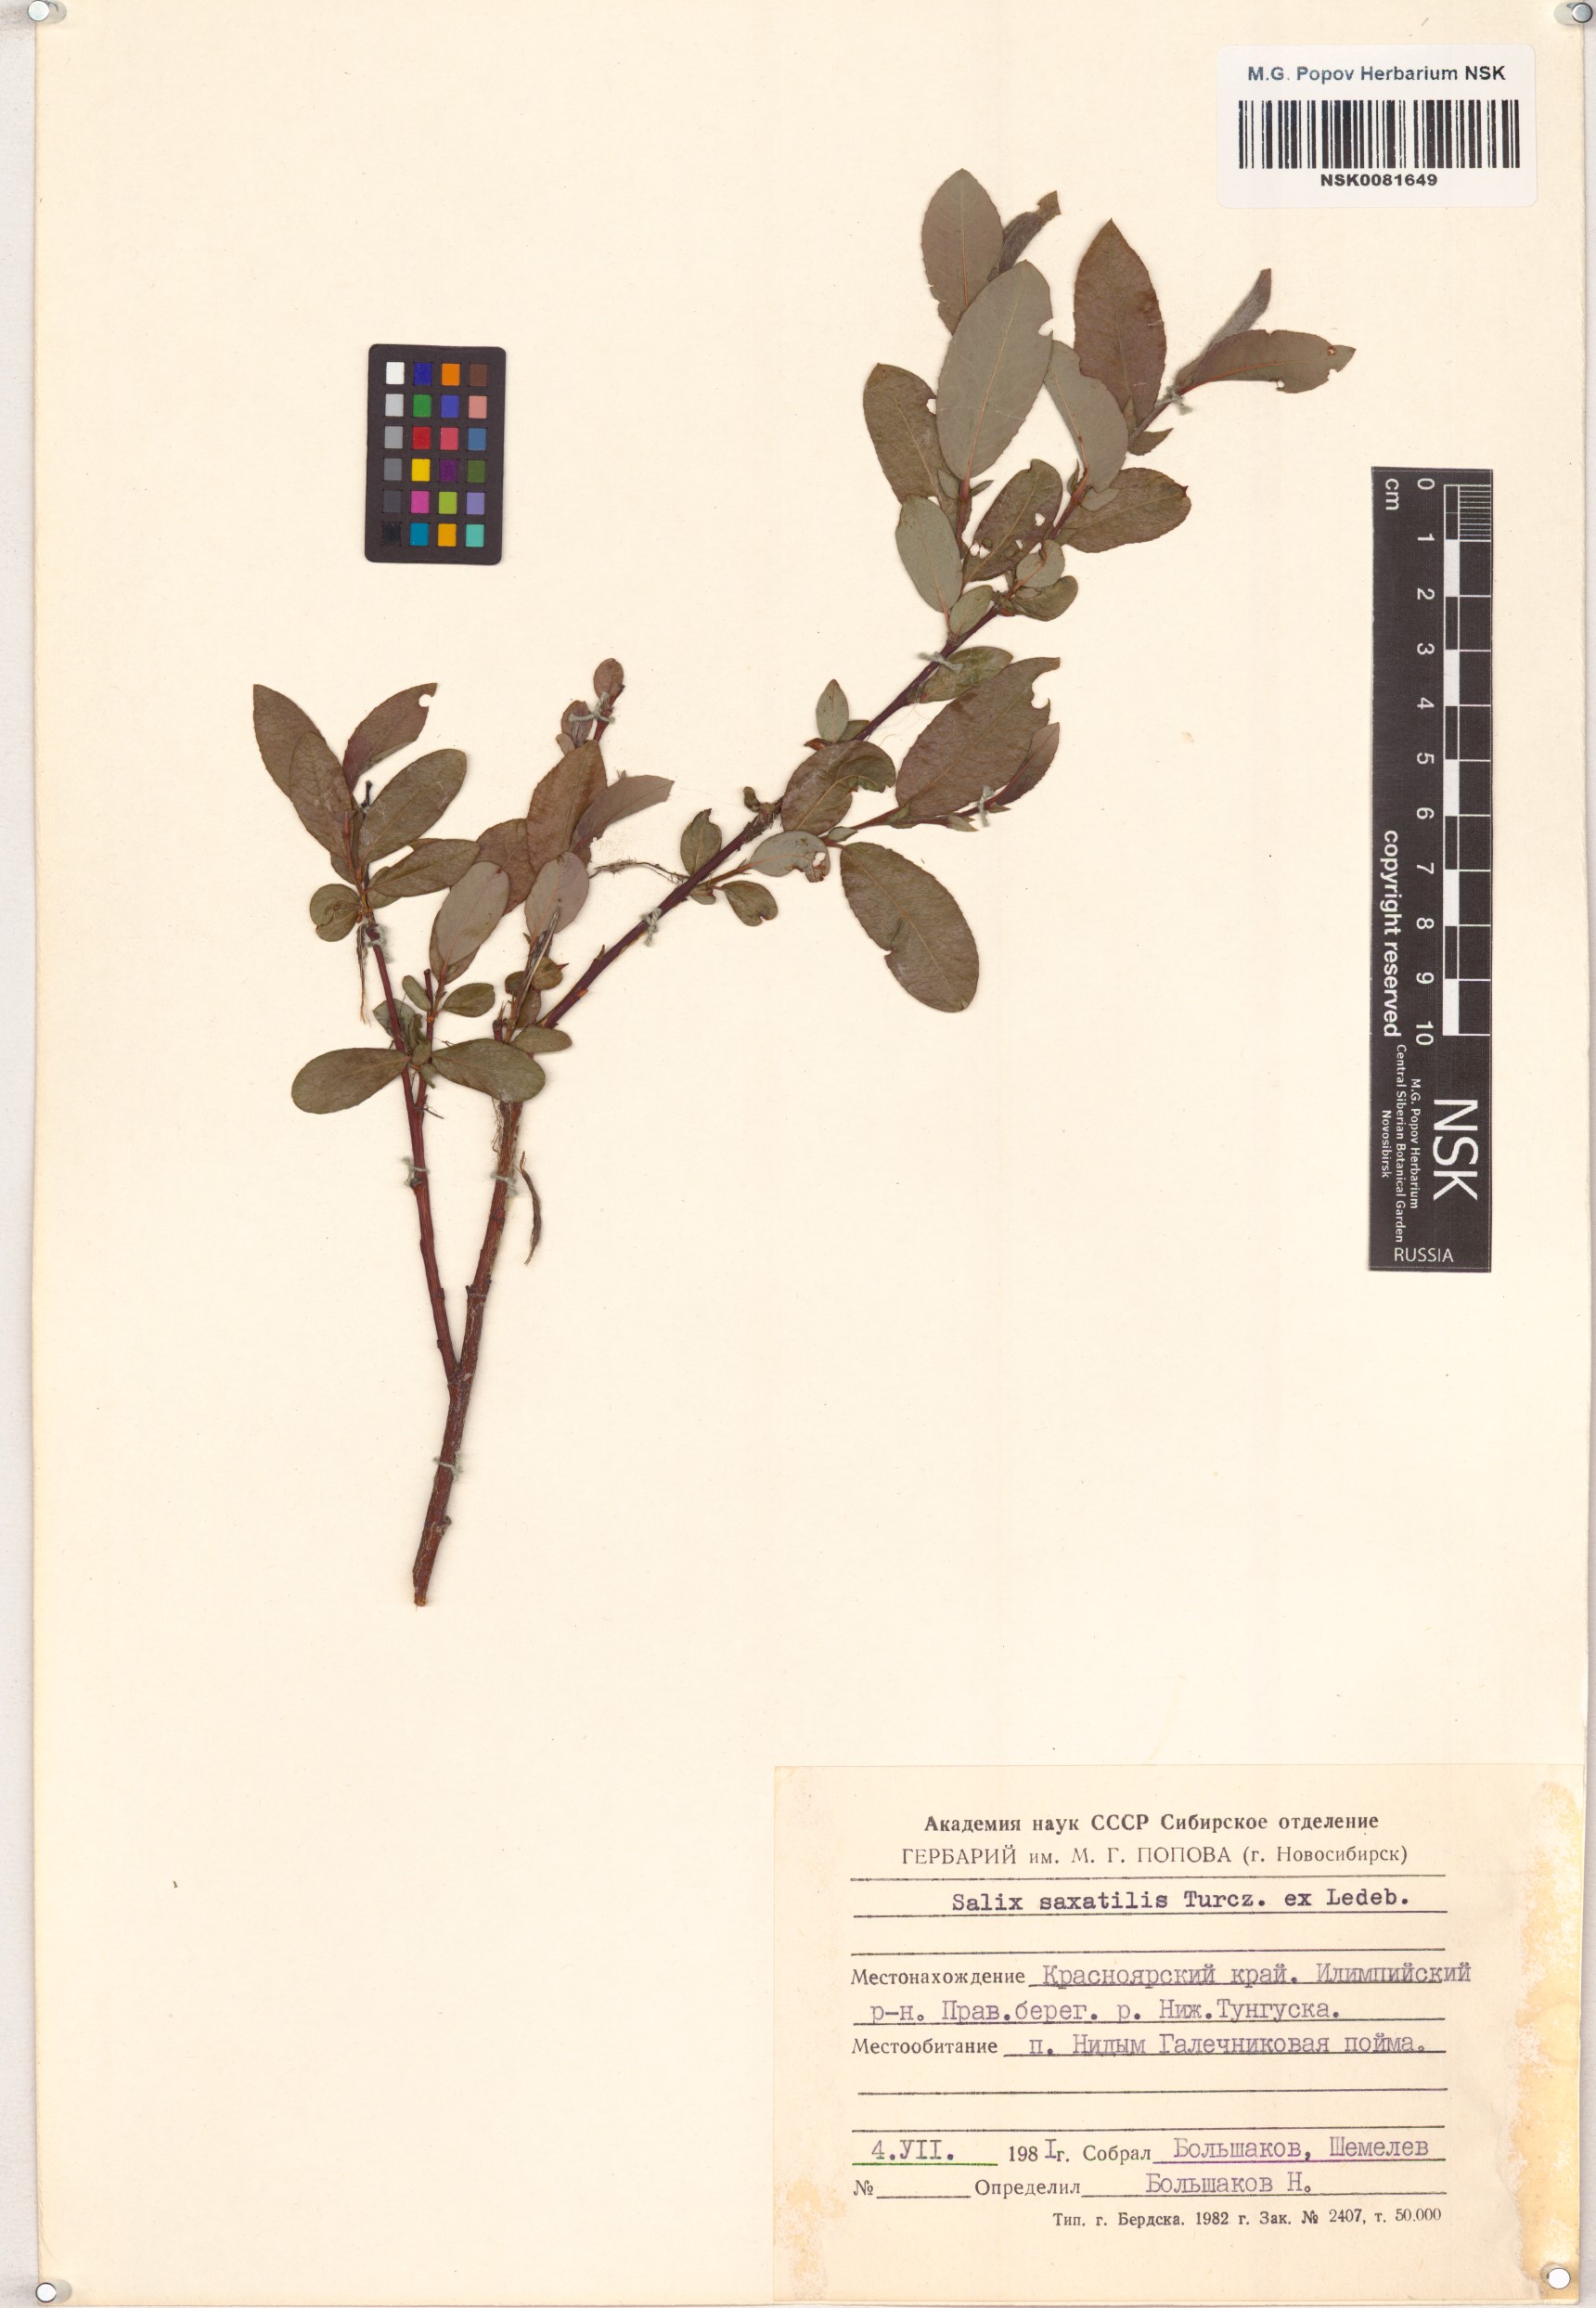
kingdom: Plantae
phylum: Tracheophyta
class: Magnoliopsida
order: Malpighiales
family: Salicaceae
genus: Salix
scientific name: Salix saxatilis
